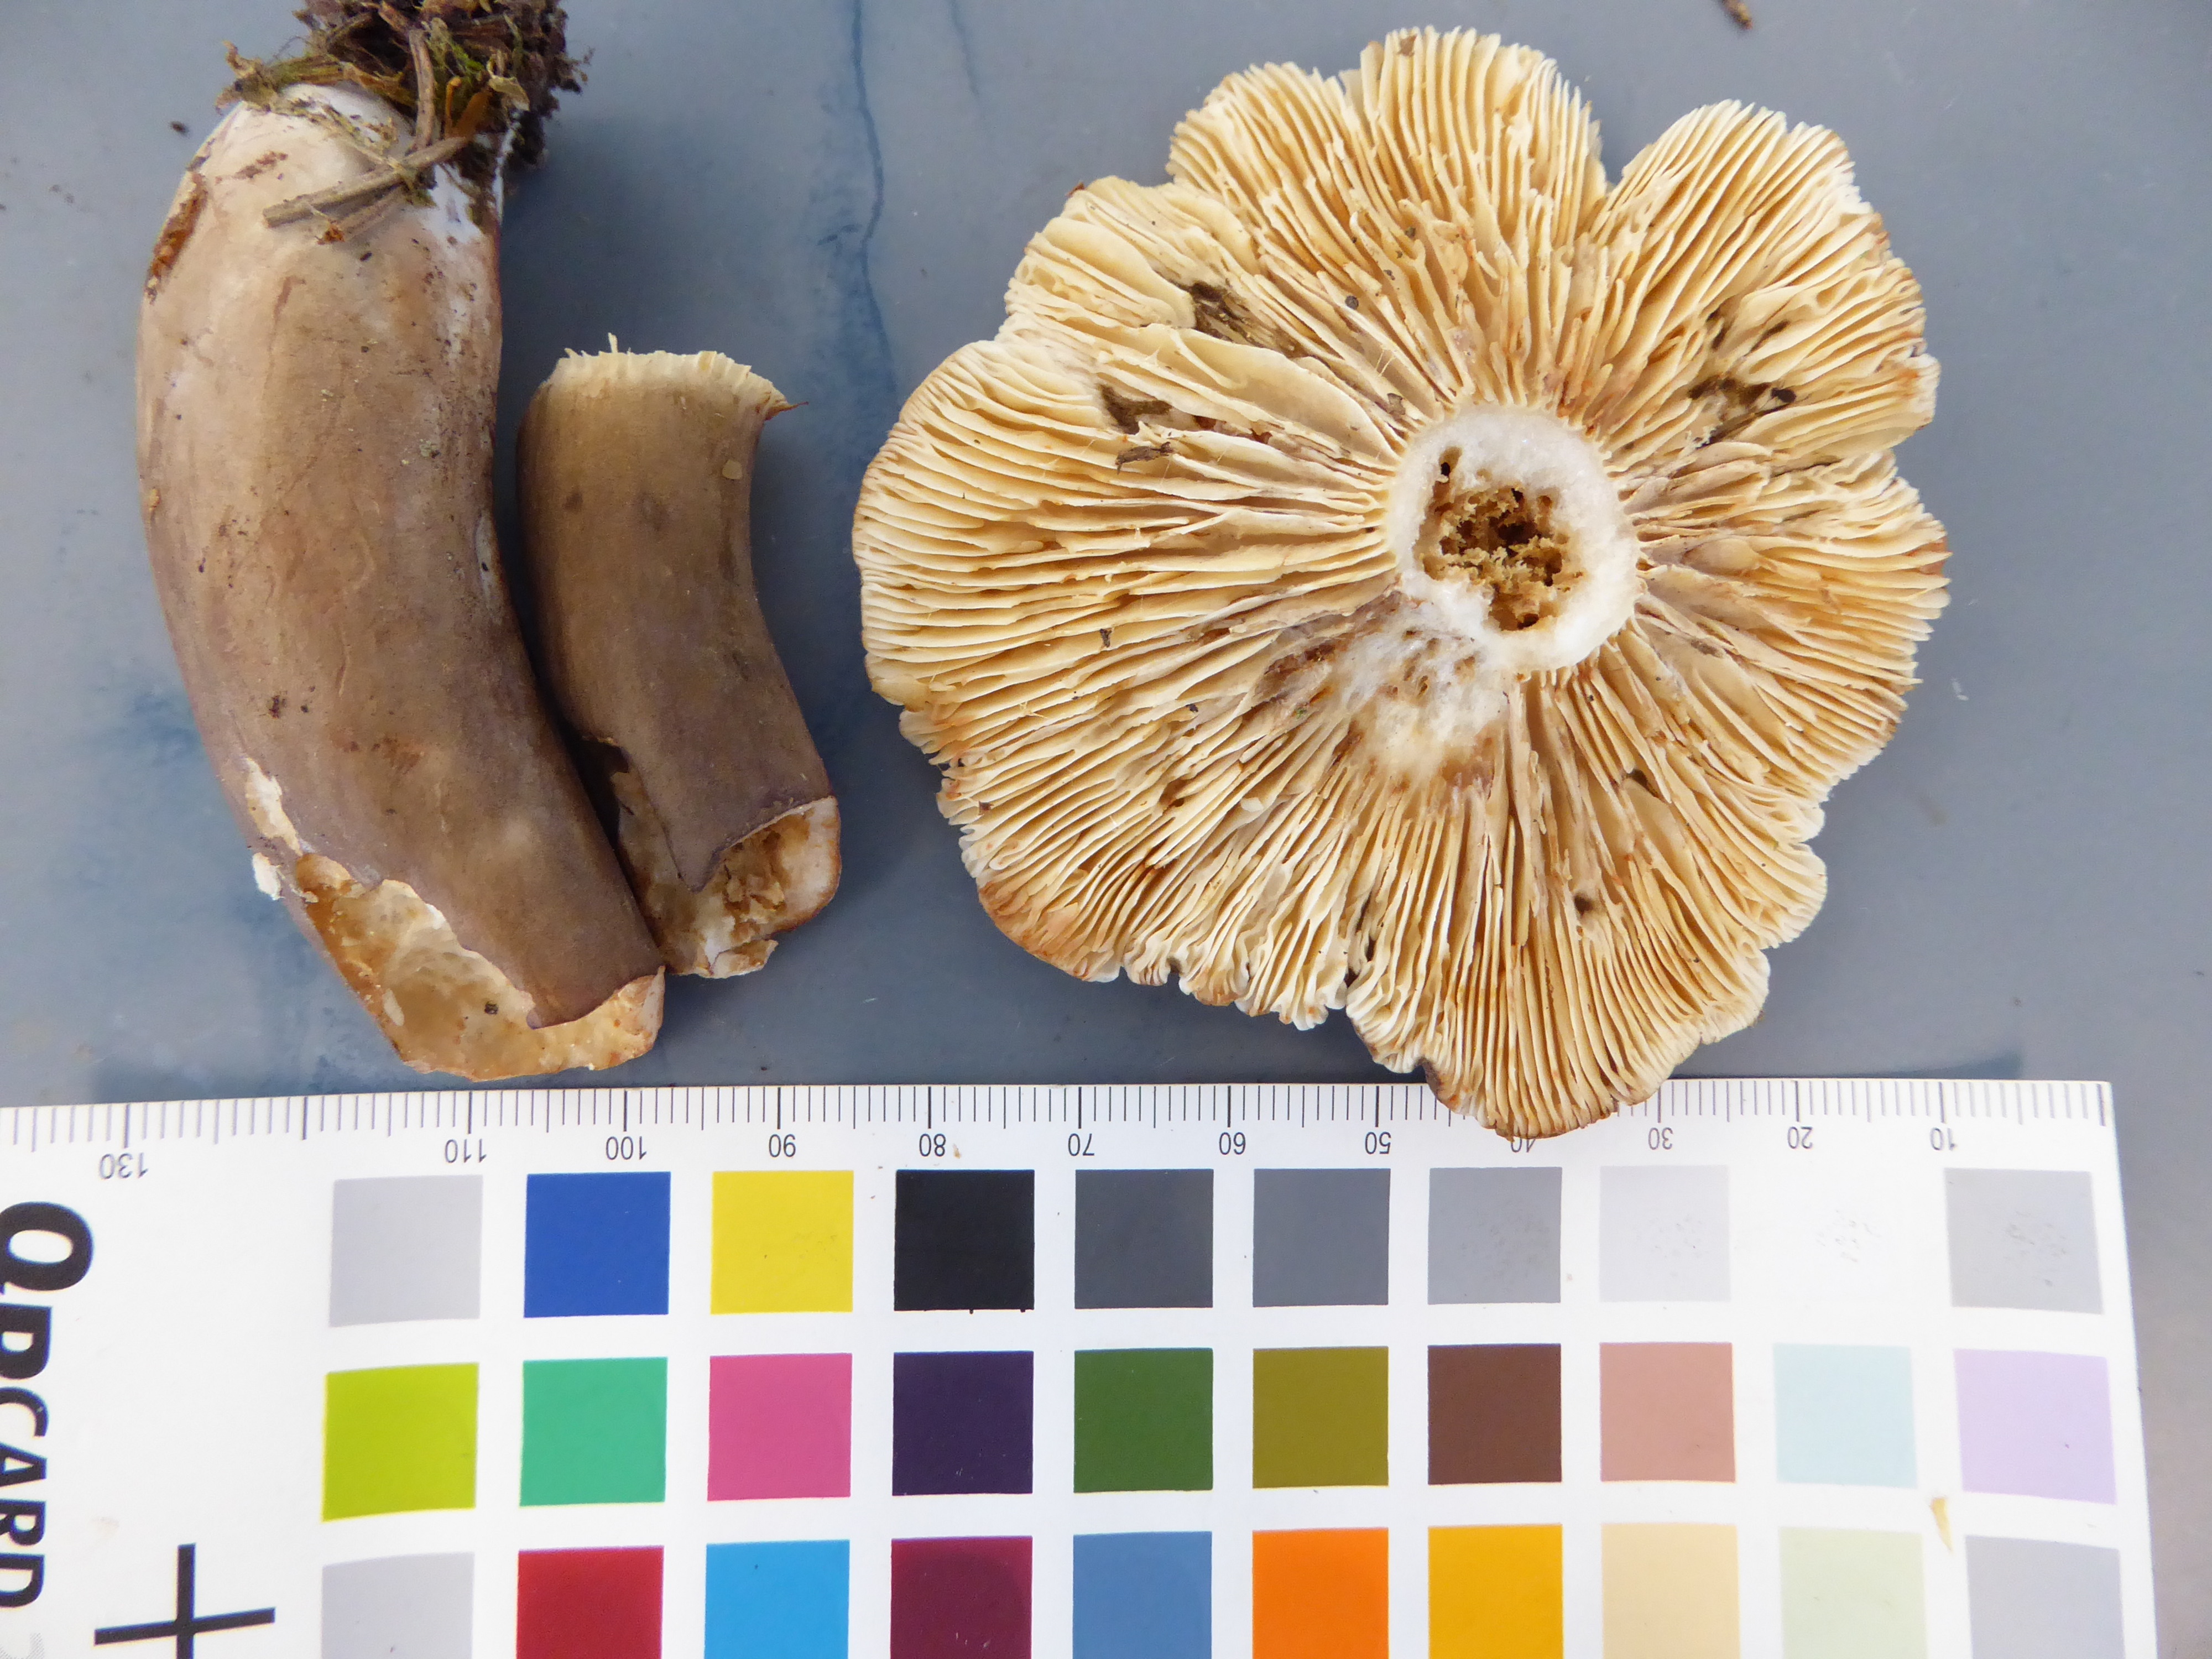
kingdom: Fungi
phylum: Basidiomycota
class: Agaricomycetes
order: Russulales
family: Russulaceae
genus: Lactarius
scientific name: Lactarius picinus
